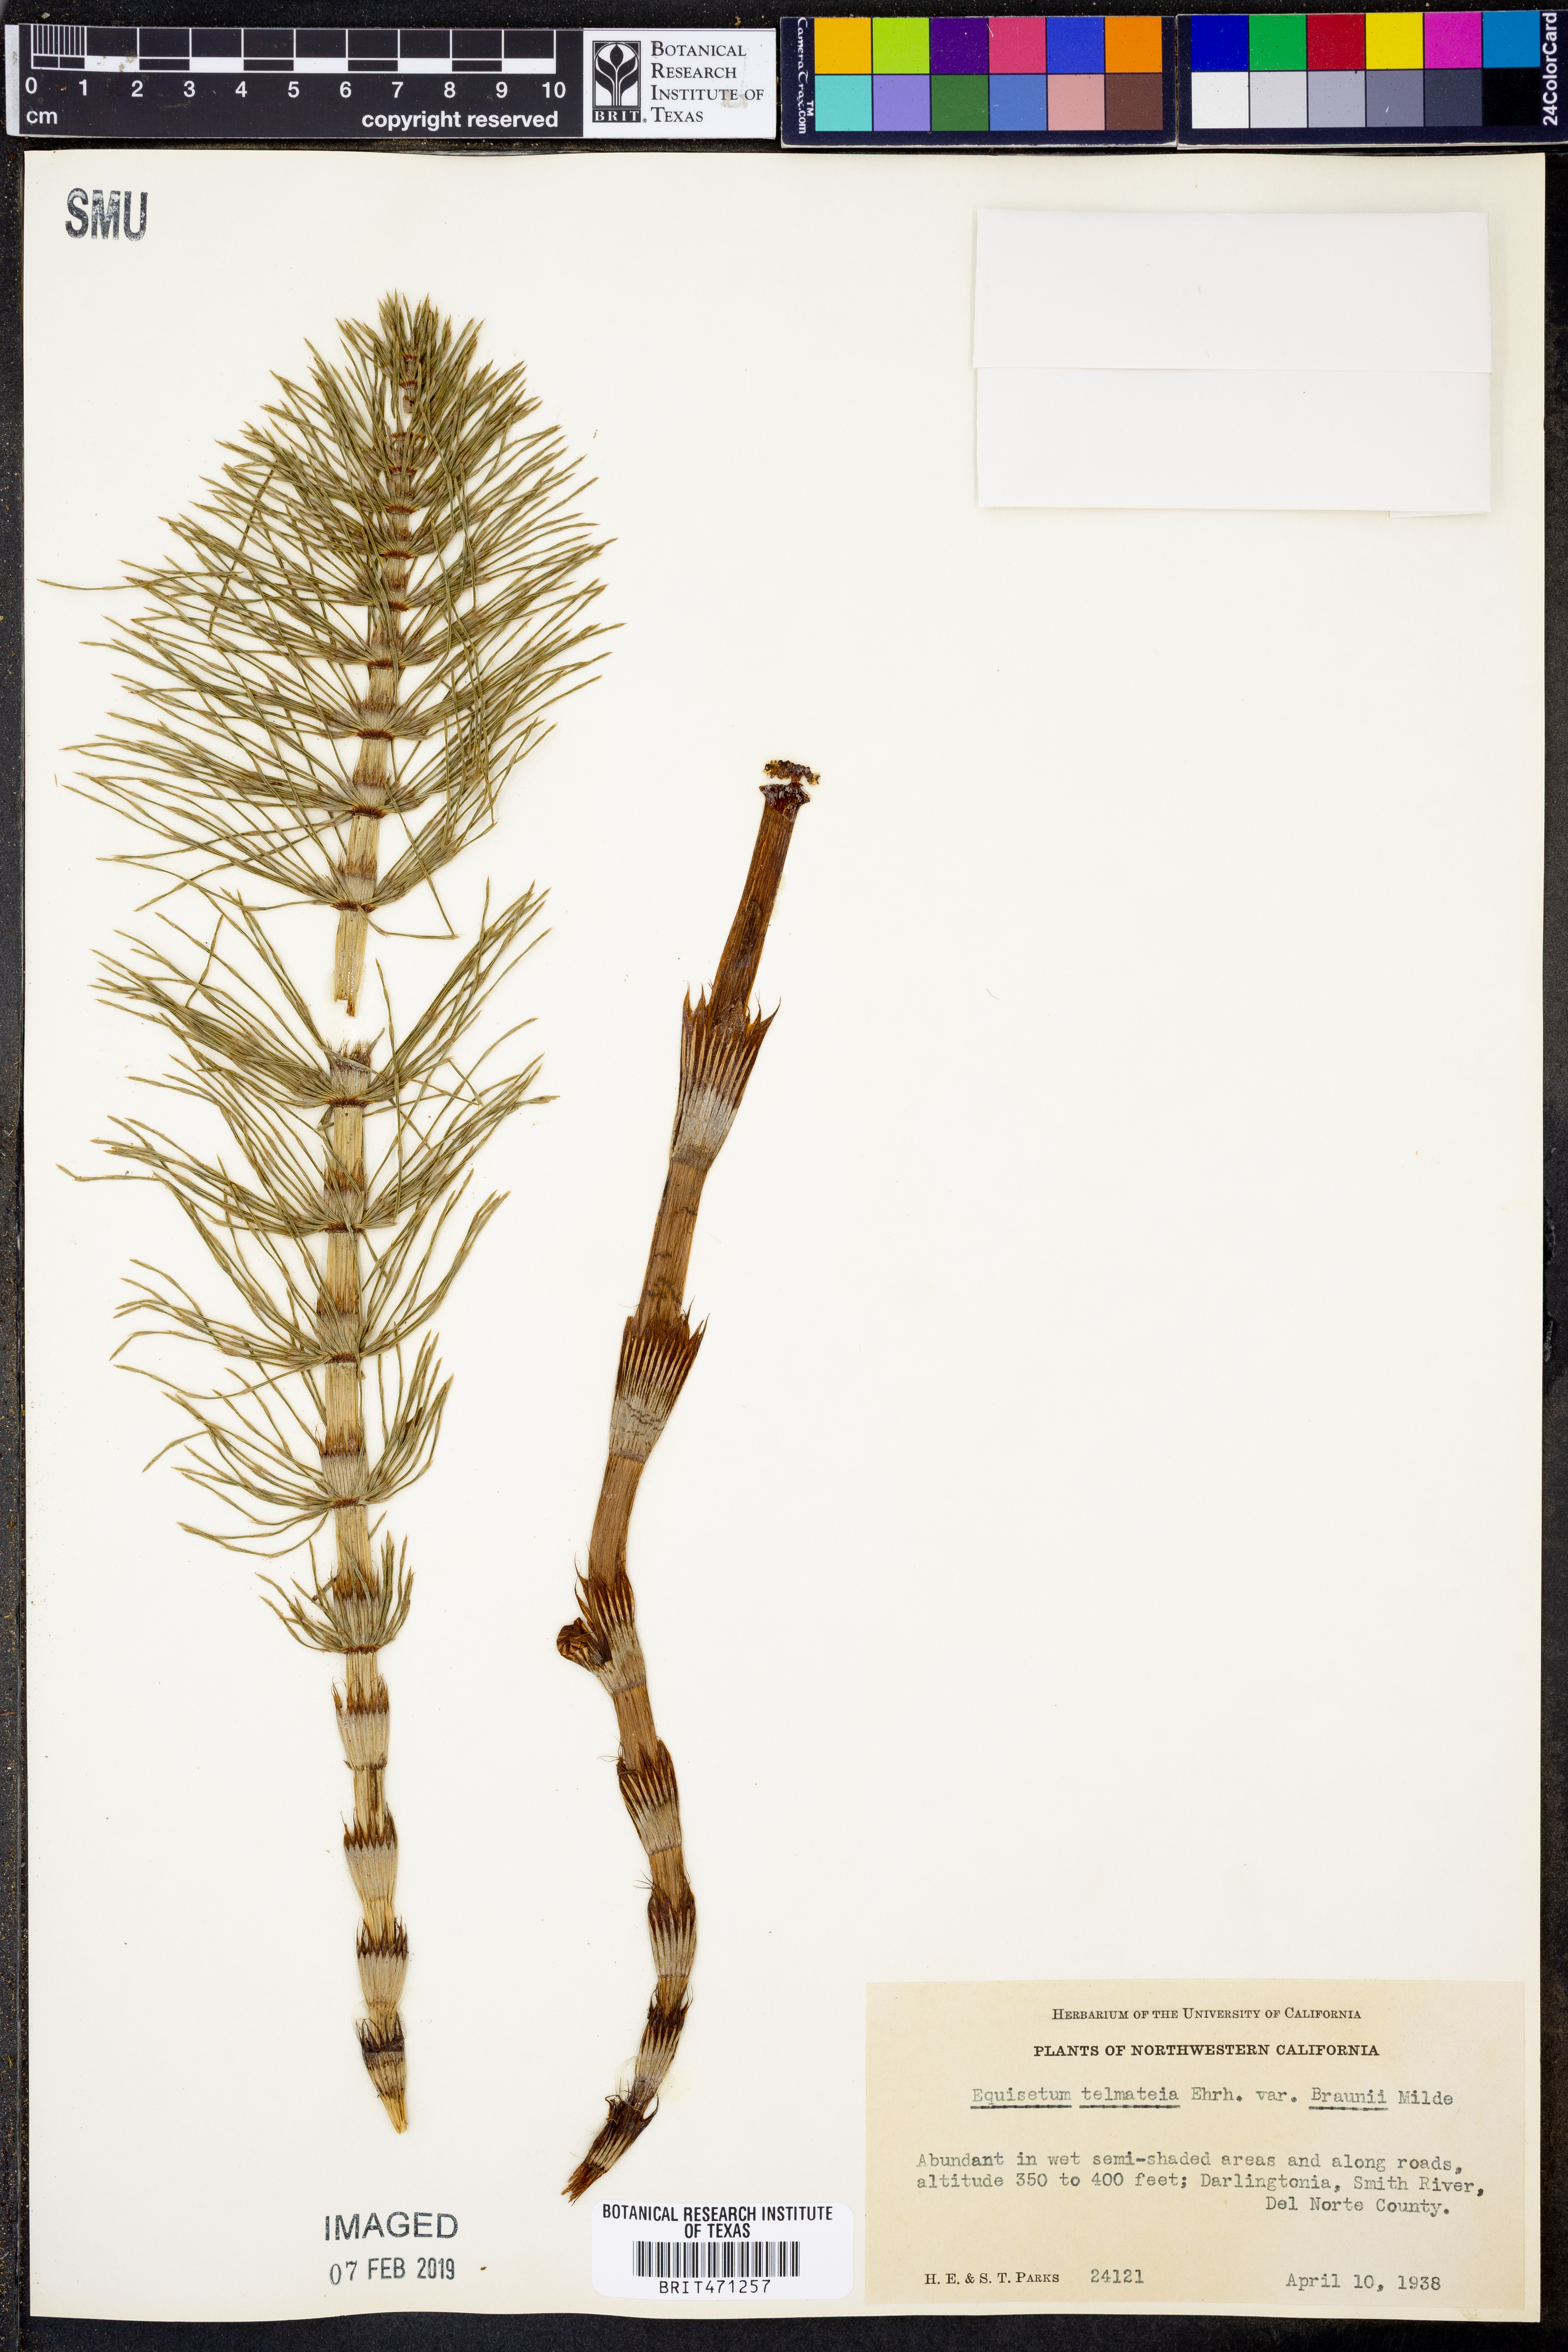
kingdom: Plantae
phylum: Tracheophyta
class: Polypodiopsida
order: Equisetales
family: Equisetaceae
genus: Equisetum
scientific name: Equisetum braunii
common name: Braun's horsetail
